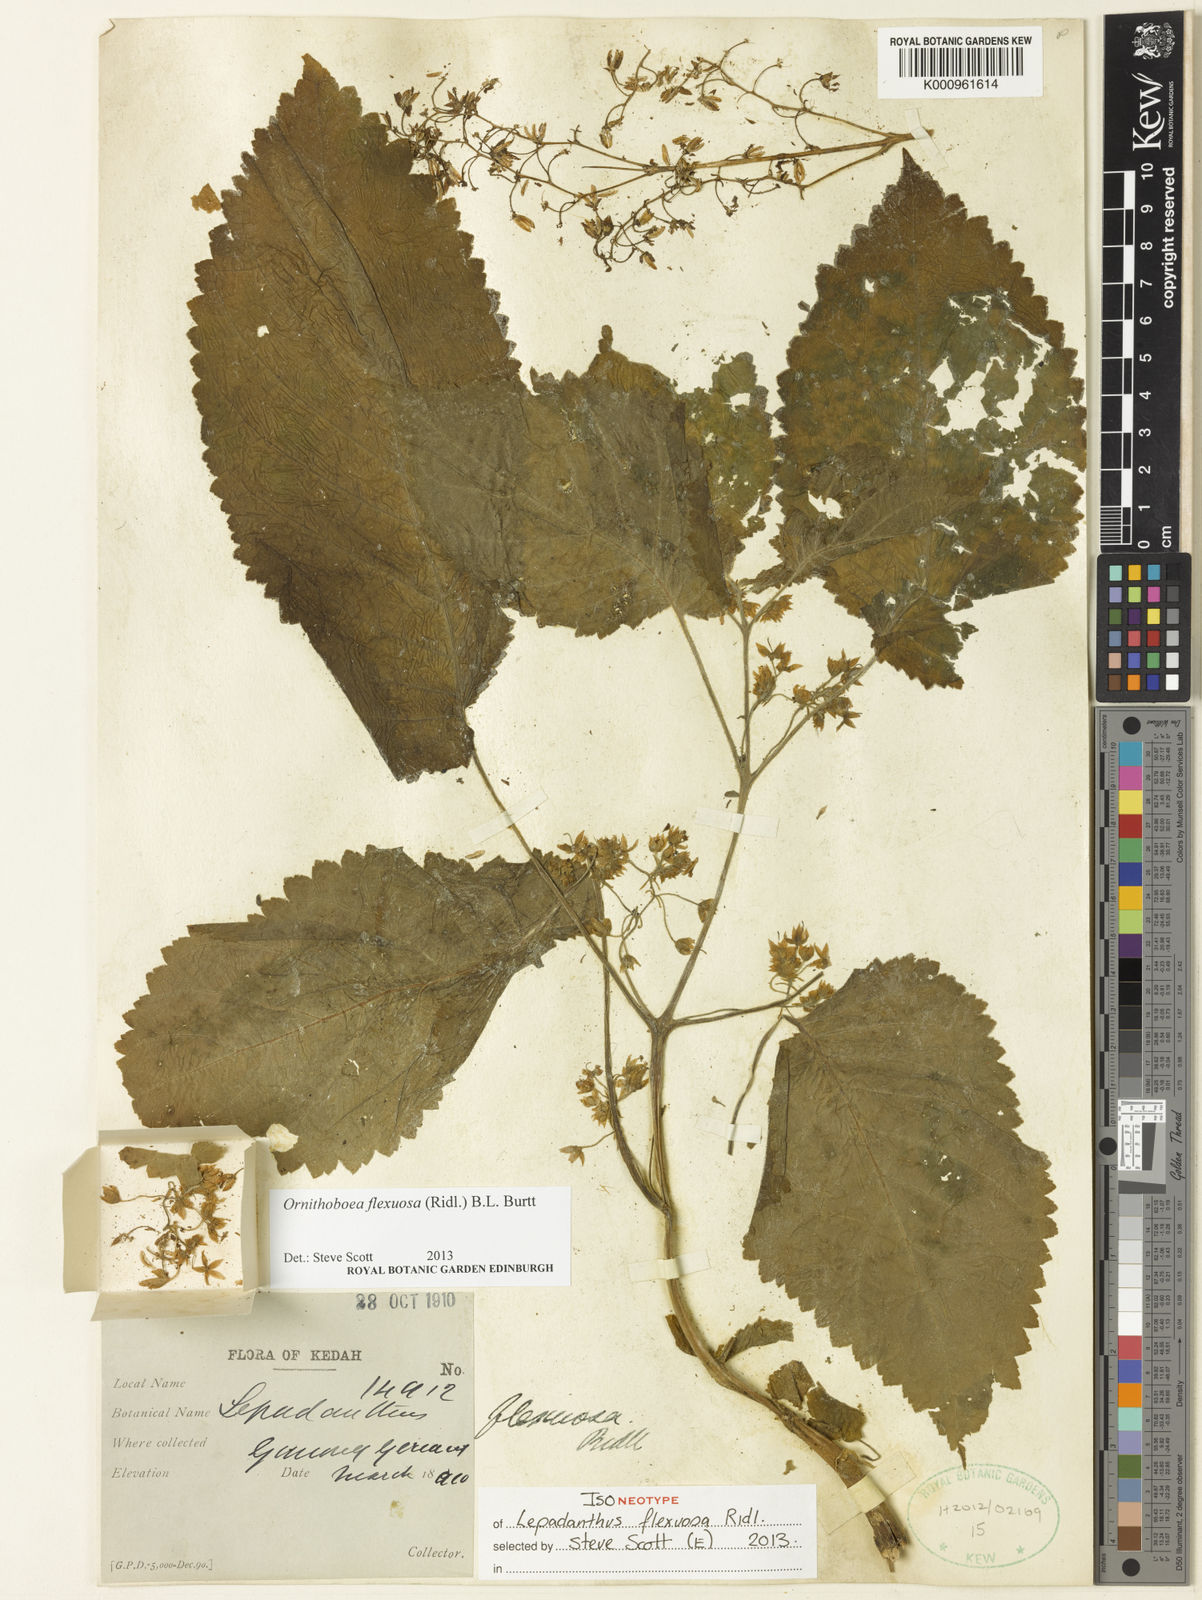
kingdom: Plantae
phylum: Tracheophyta
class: Magnoliopsida
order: Lamiales
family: Gesneriaceae
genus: Ornithoboea
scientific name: Ornithoboea flexuosa
